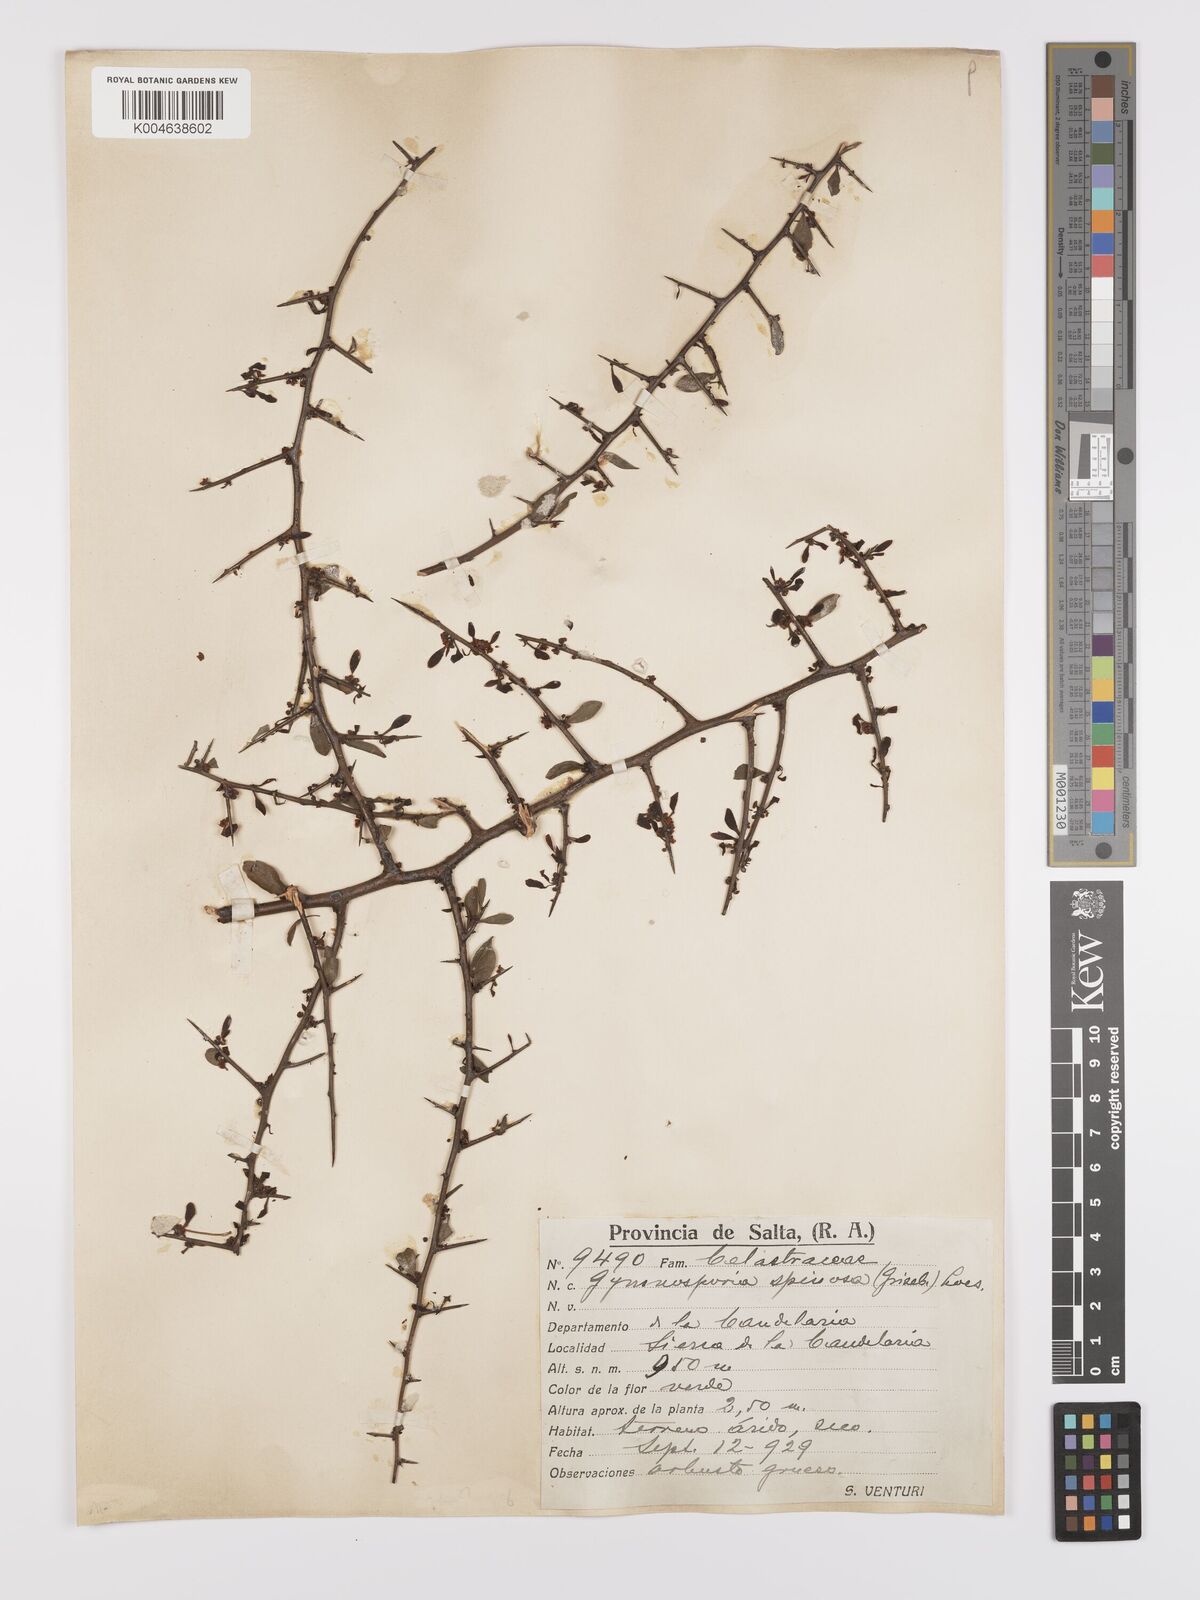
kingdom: Plantae
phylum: Tracheophyta
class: Magnoliopsida
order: Celastrales
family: Celastraceae
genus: Monteverdia
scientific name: Monteverdia spinosa
